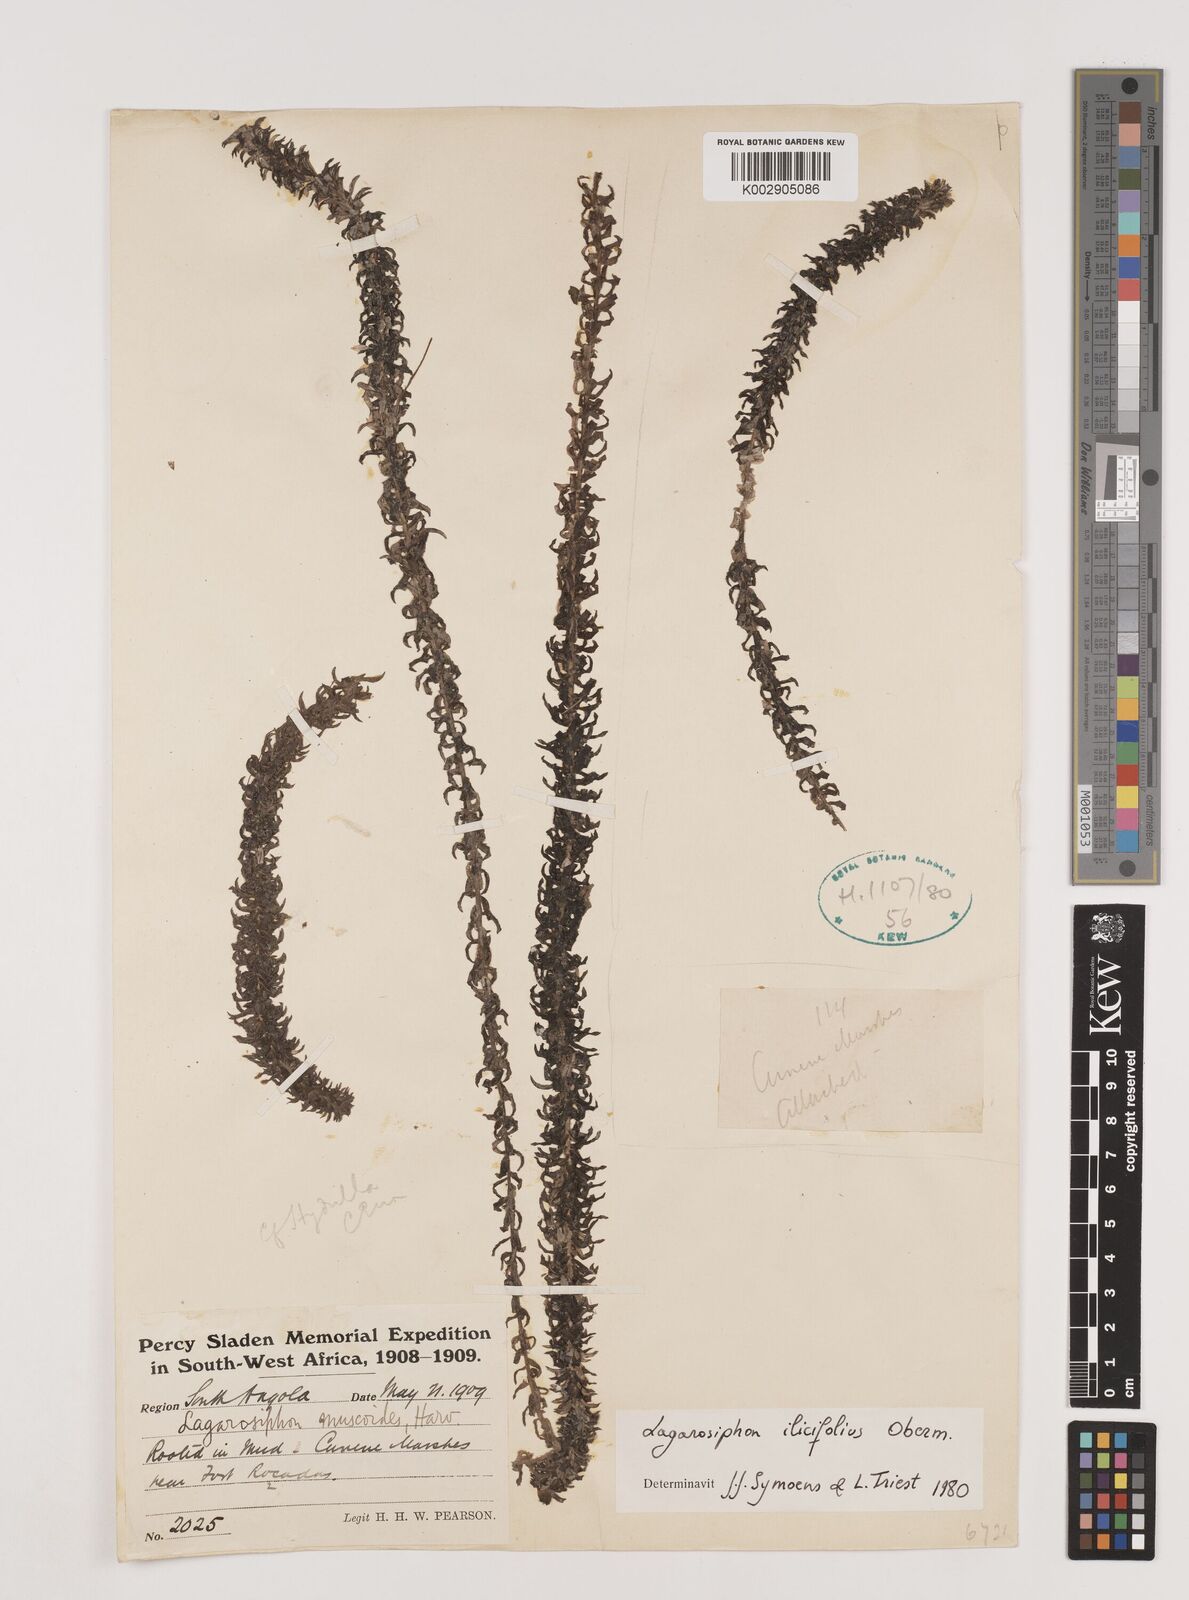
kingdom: Plantae
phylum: Tracheophyta
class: Liliopsida
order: Alismatales
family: Hydrocharitaceae
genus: Lagarosiphon
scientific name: Lagarosiphon ilicifolius
